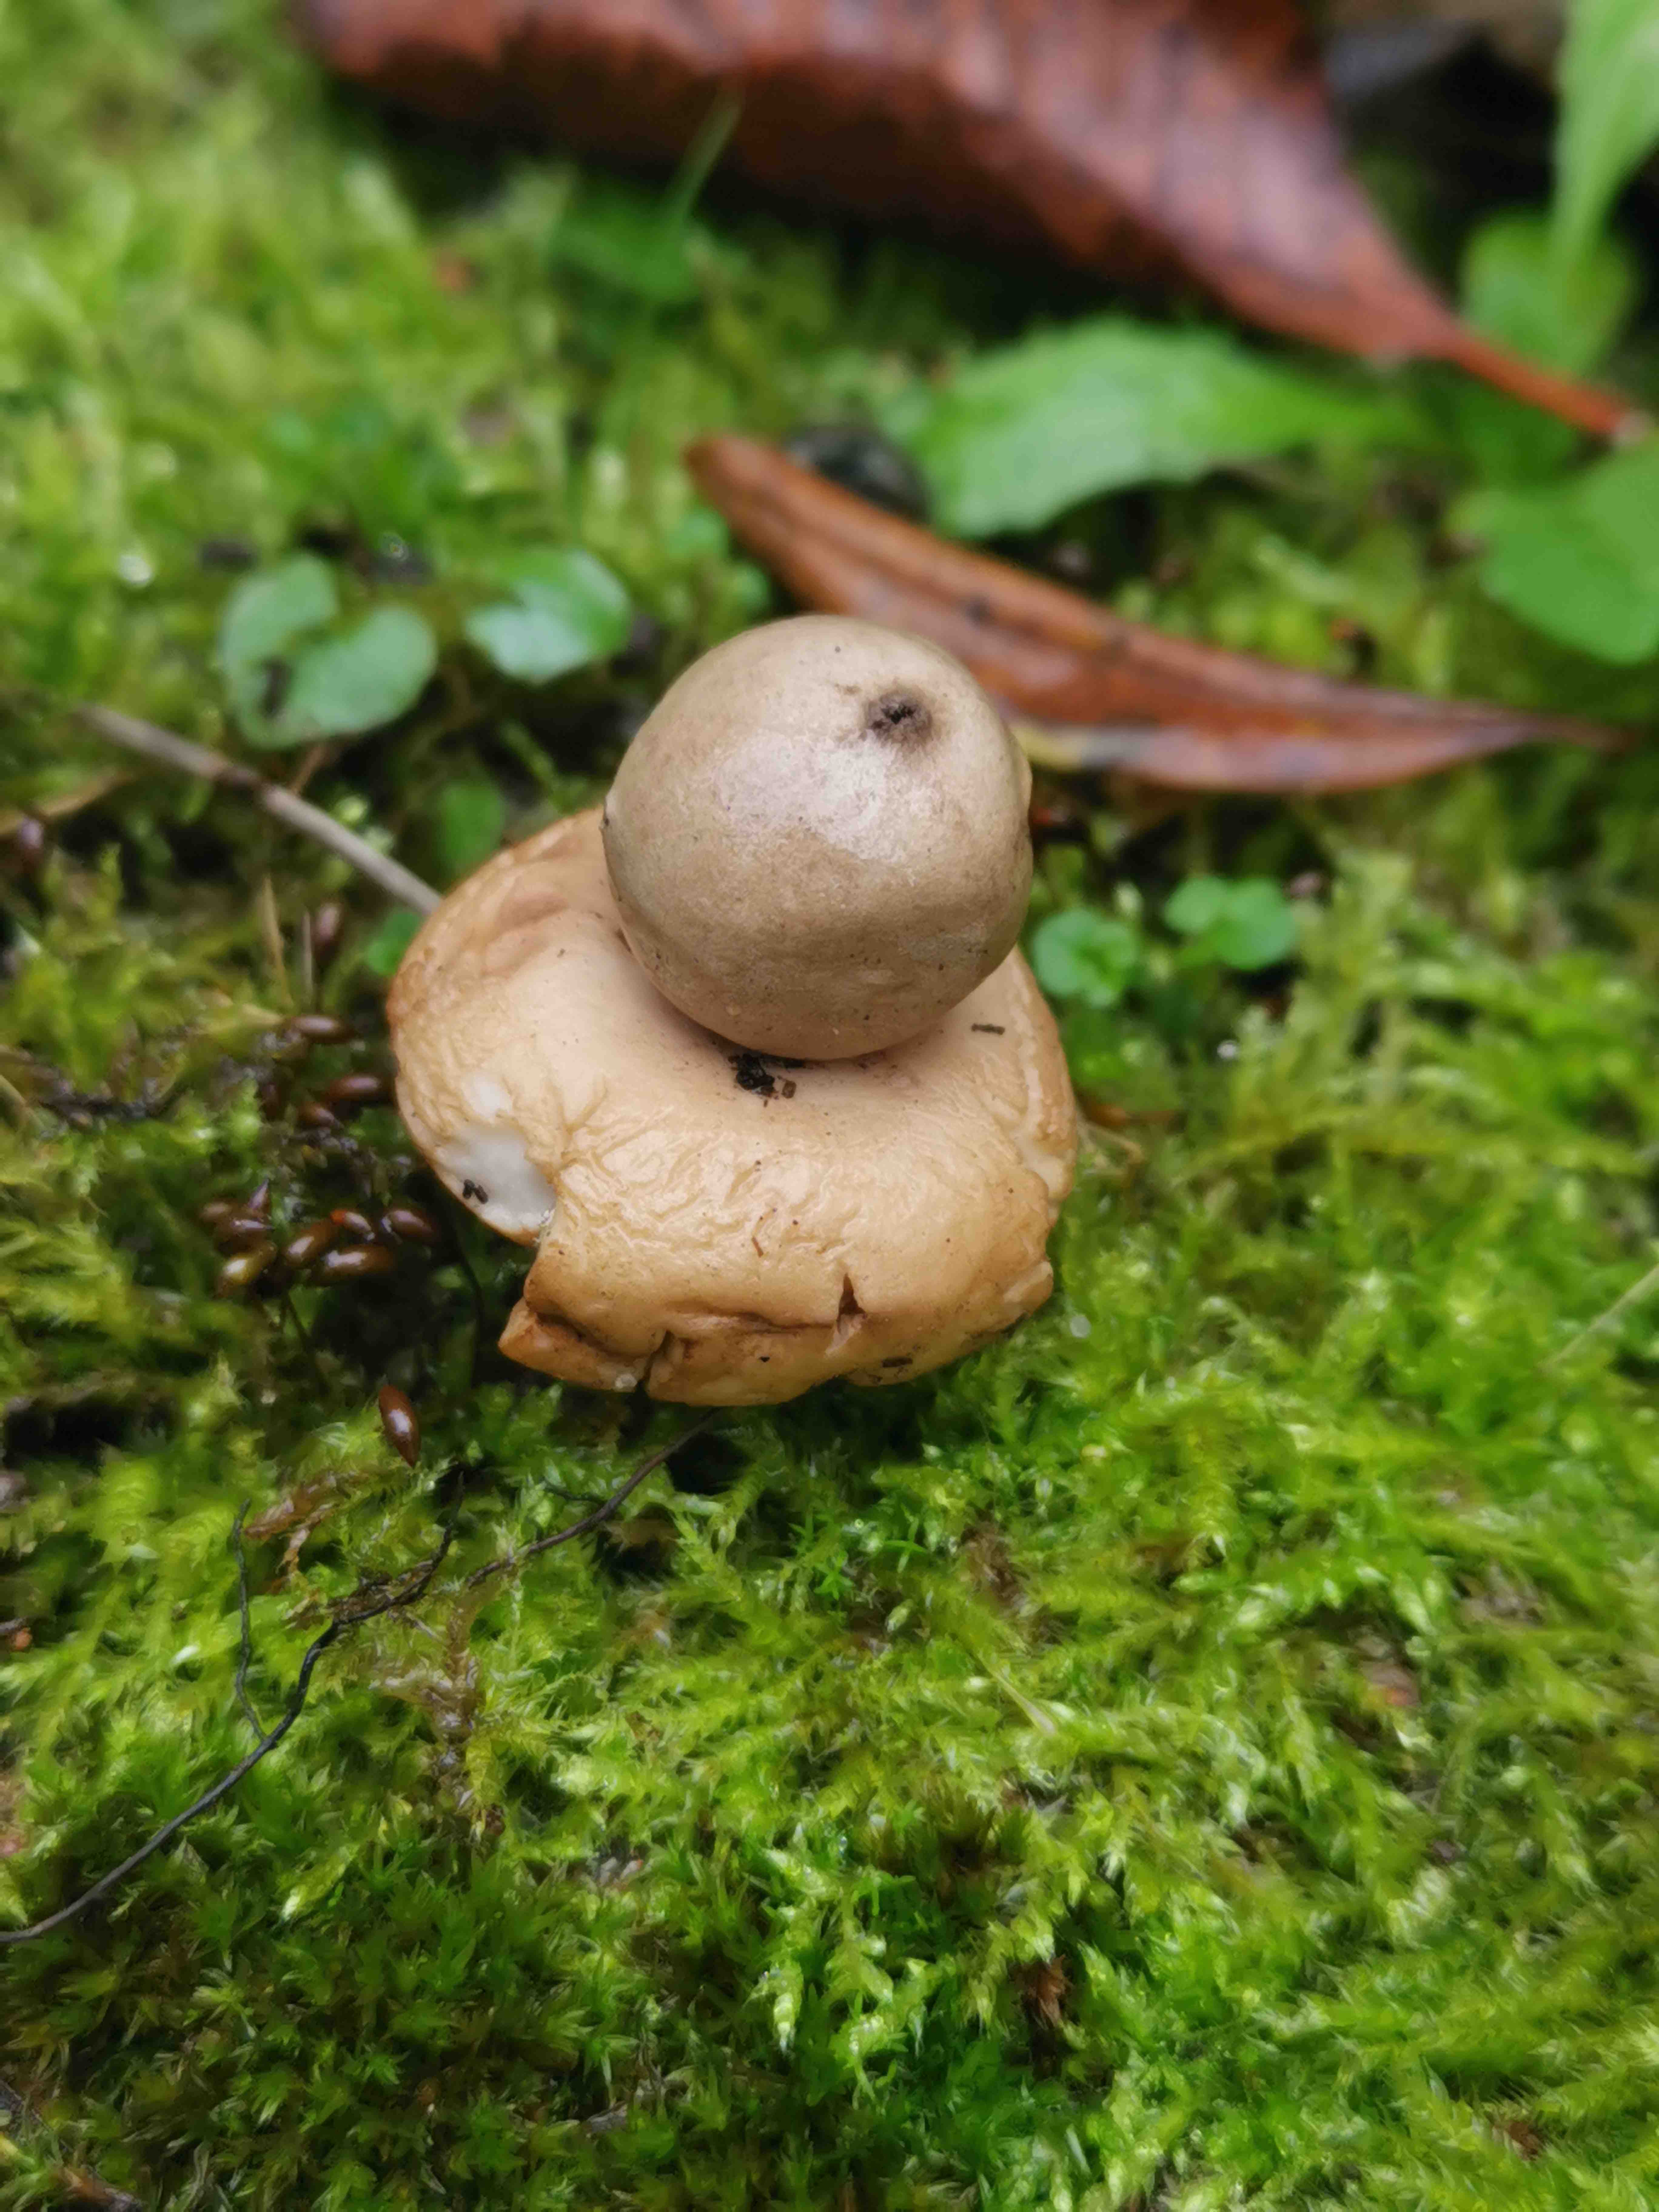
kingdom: Fungi
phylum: Basidiomycota
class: Agaricomycetes
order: Geastrales
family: Geastraceae
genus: Geastrum
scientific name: Geastrum fimbriatum
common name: frynset stjernebold
